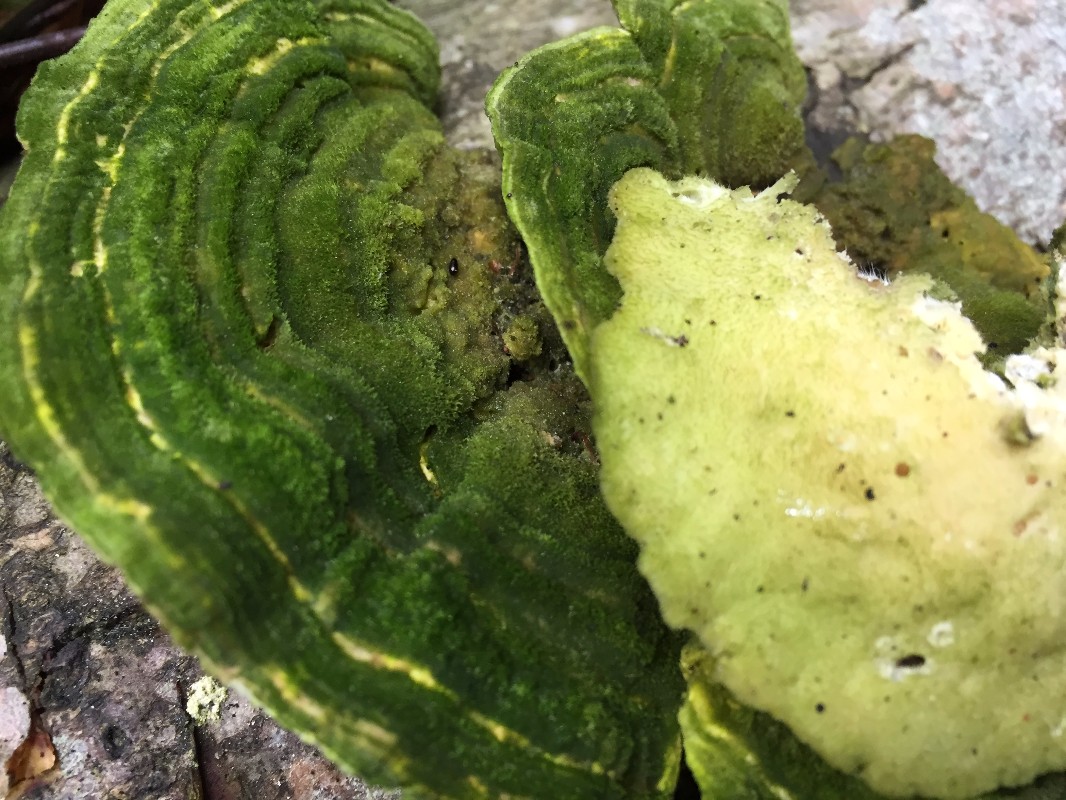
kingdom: Fungi
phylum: Basidiomycota
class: Agaricomycetes
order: Polyporales
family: Polyporaceae
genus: Trametes
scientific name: Trametes hirsuta
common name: håret læderporesvamp
